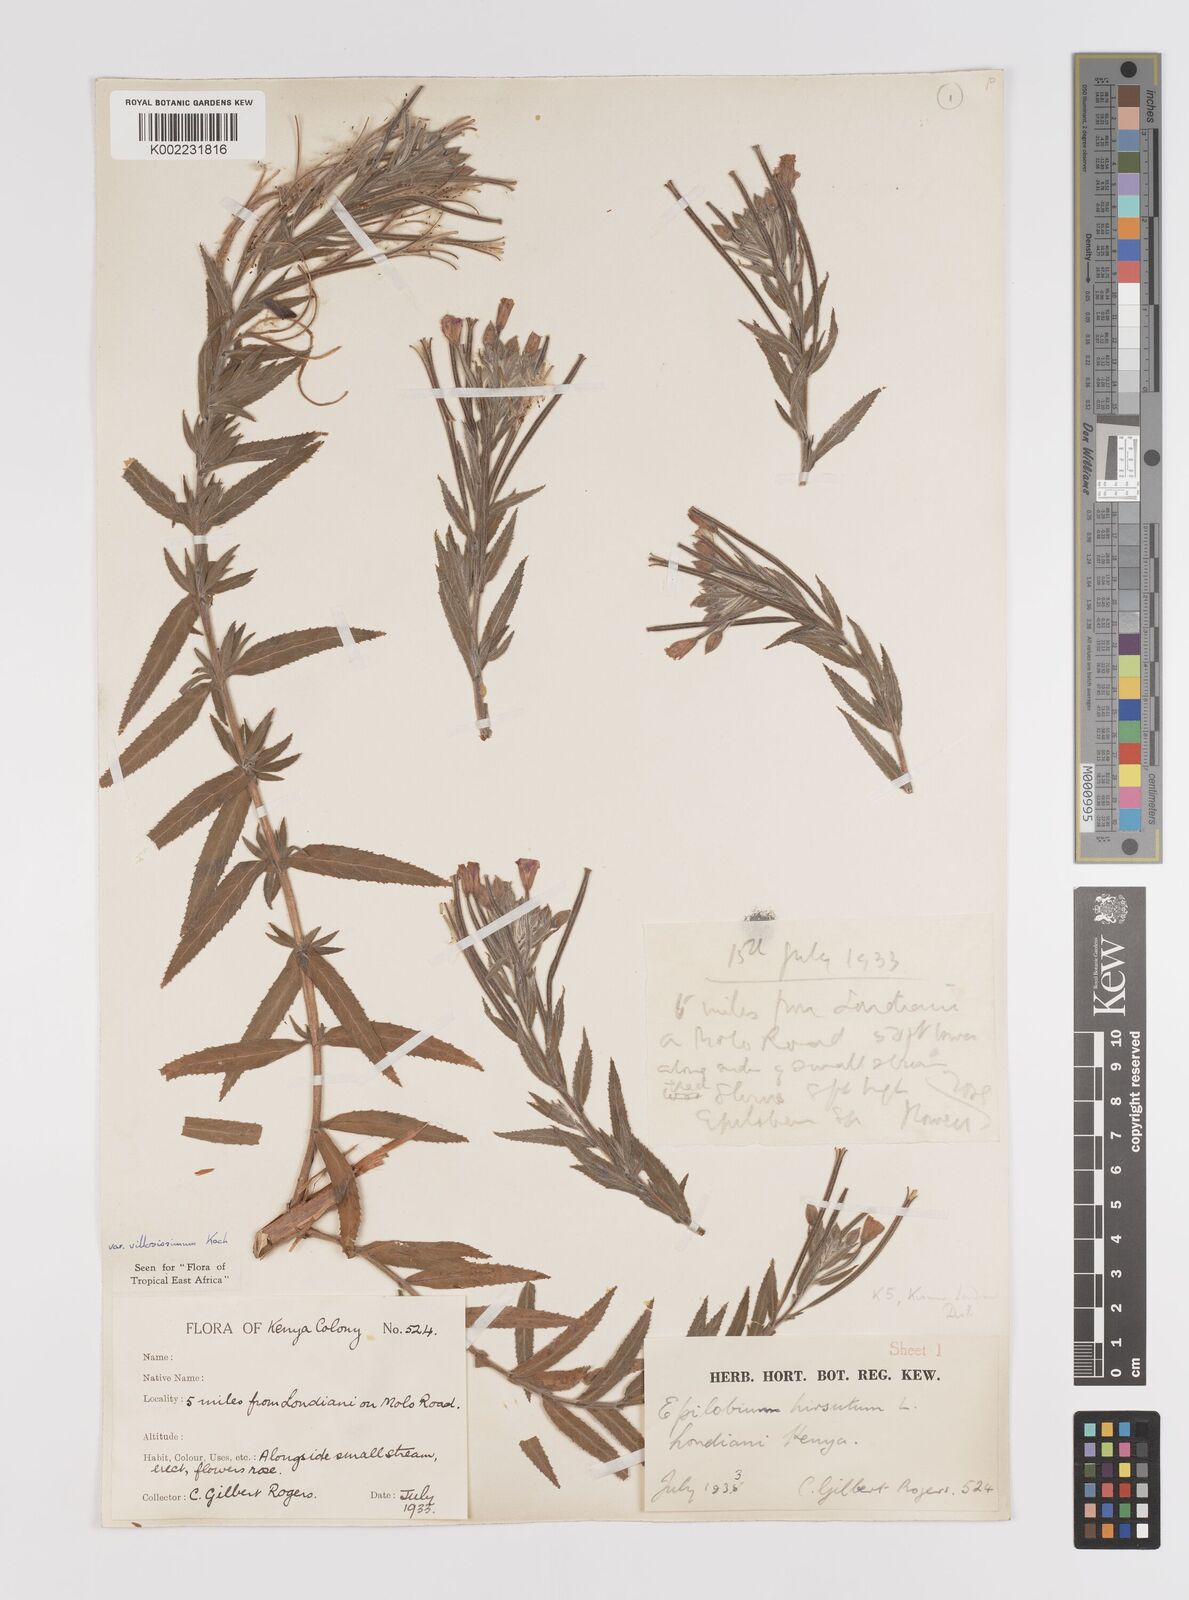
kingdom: Plantae
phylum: Tracheophyta
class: Magnoliopsida
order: Myrtales
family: Onagraceae
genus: Epilobium
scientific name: Epilobium hirsutum
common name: Great willowherb
